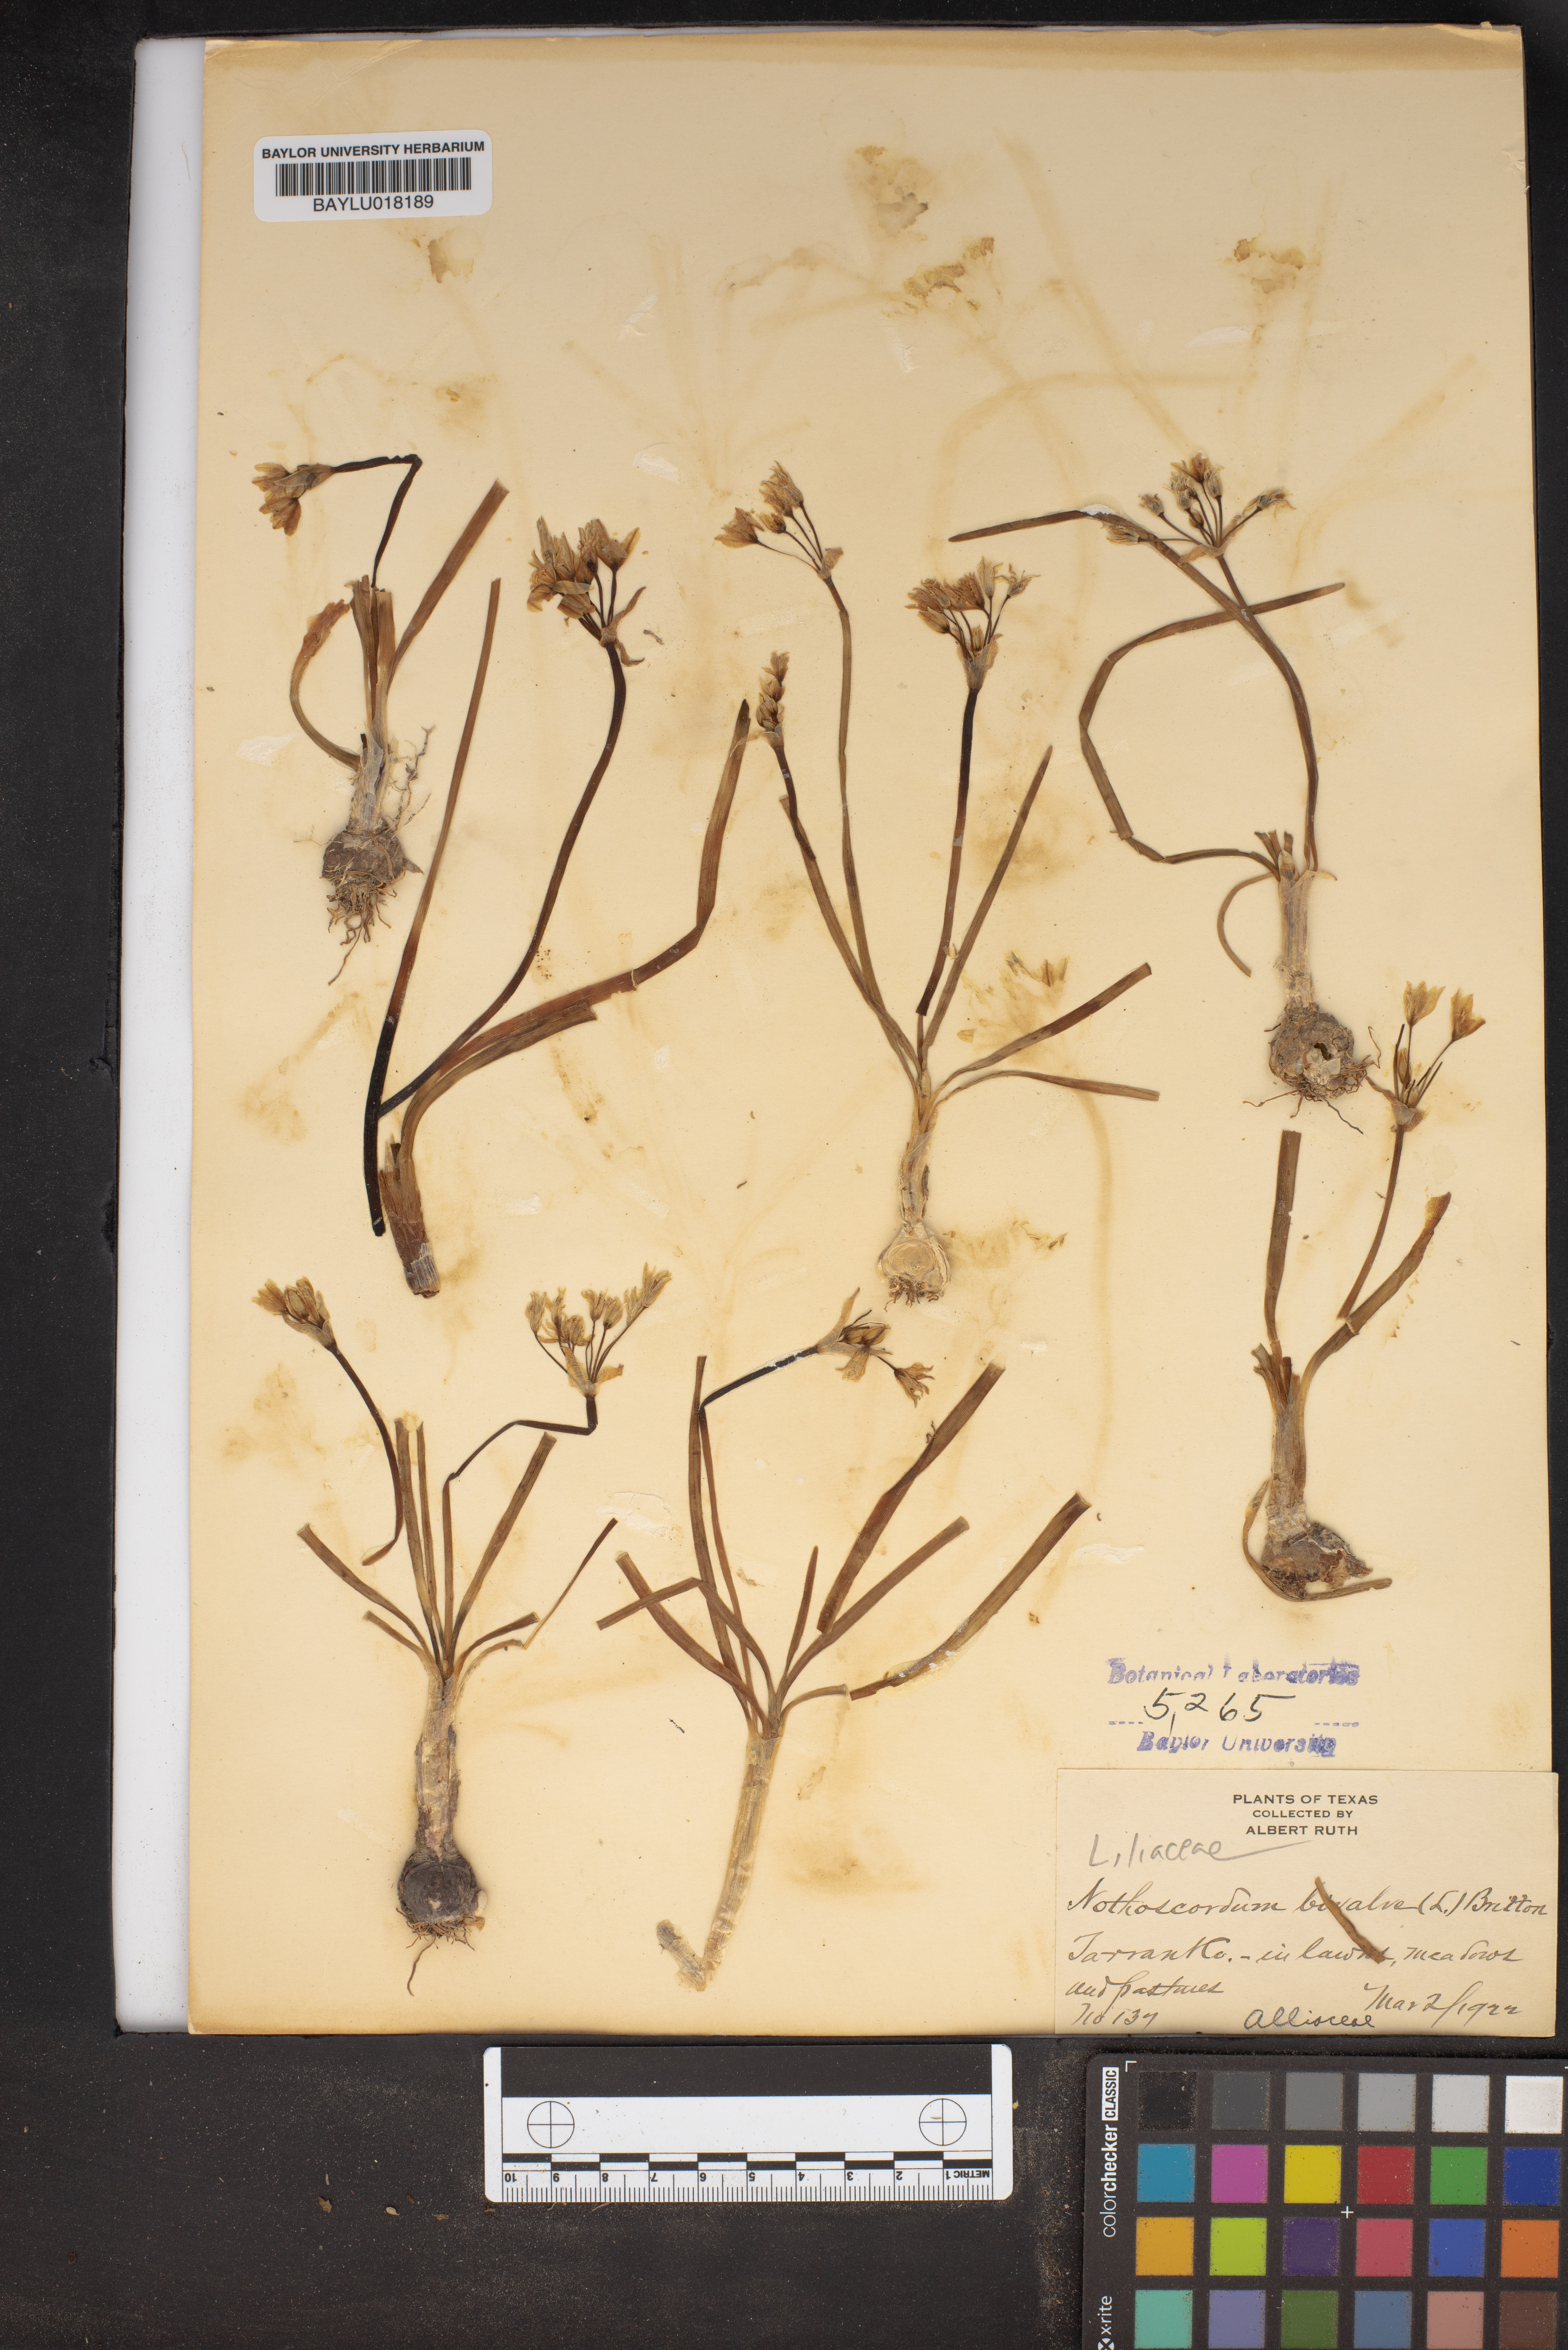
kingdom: Plantae
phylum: Tracheophyta
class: Liliopsida
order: Asparagales
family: Amaryllidaceae
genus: Nothoscordum
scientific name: Nothoscordum bivalve
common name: Crow-poison
